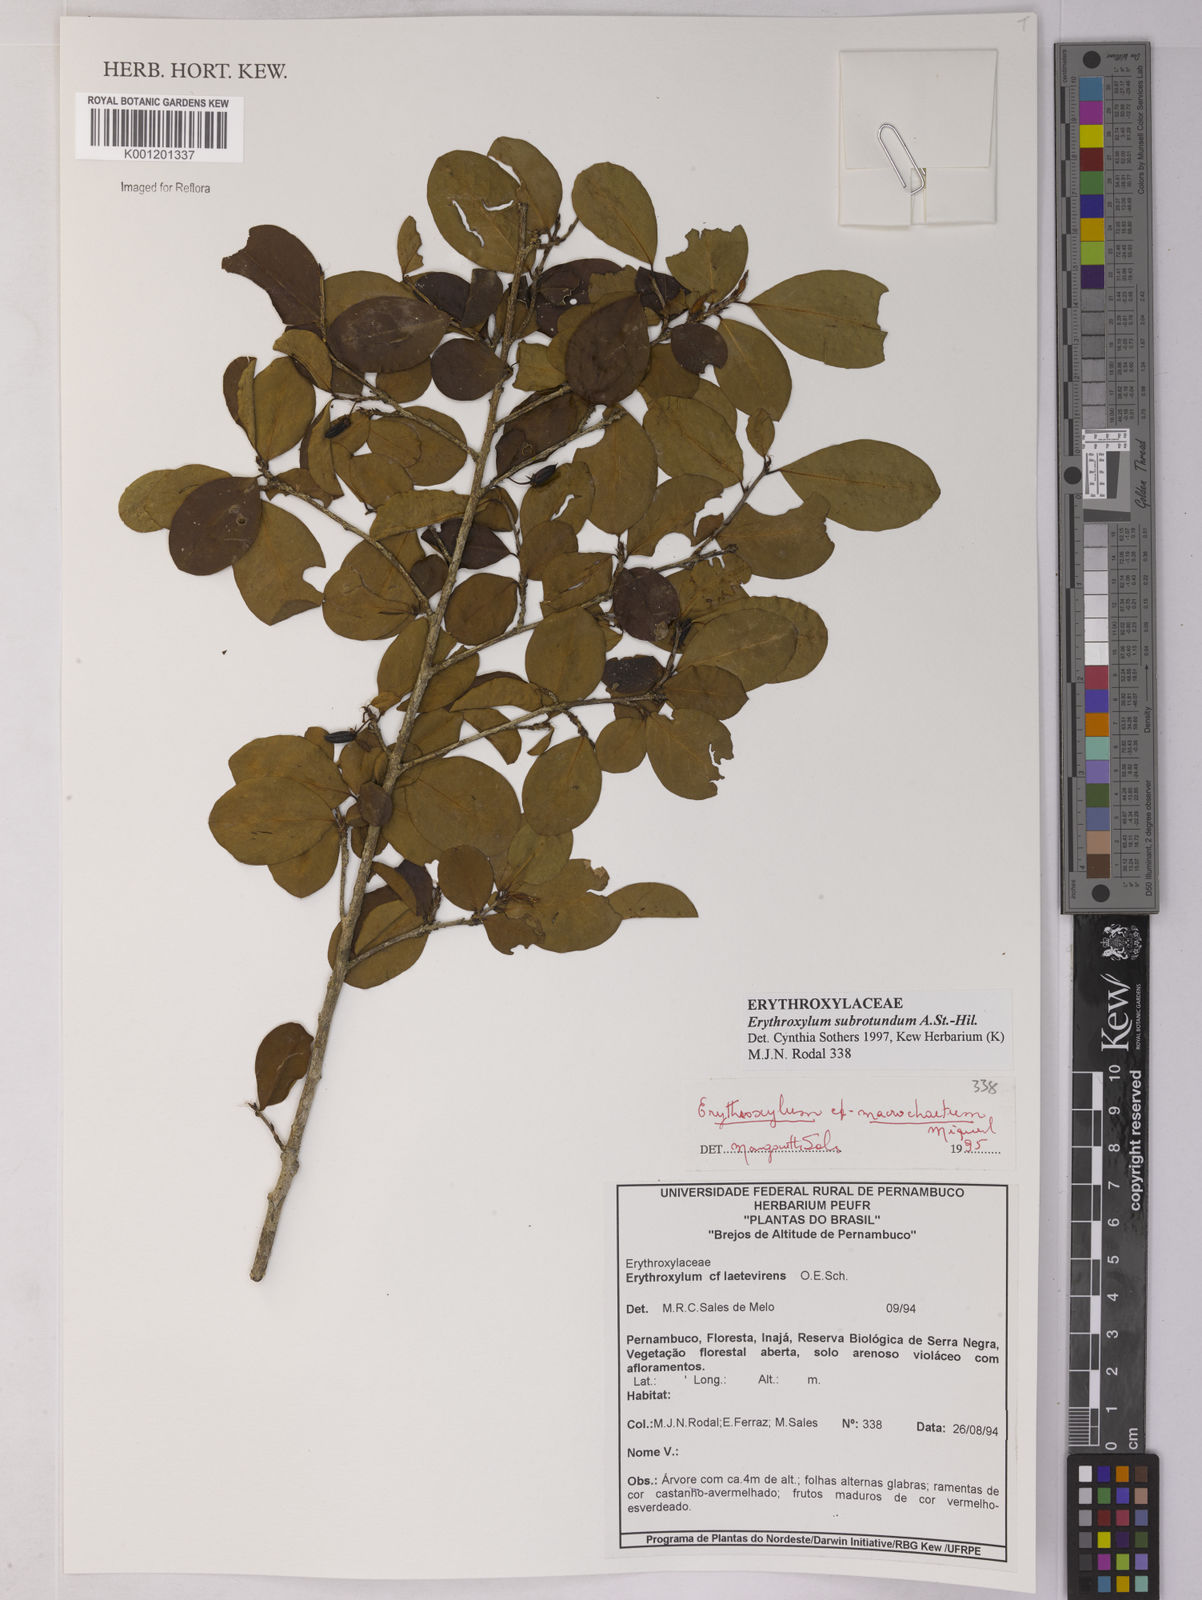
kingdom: Plantae
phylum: Tracheophyta
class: Magnoliopsida
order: Malpighiales
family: Erythroxylaceae
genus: Erythroxylum
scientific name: Erythroxylum subrotundum
